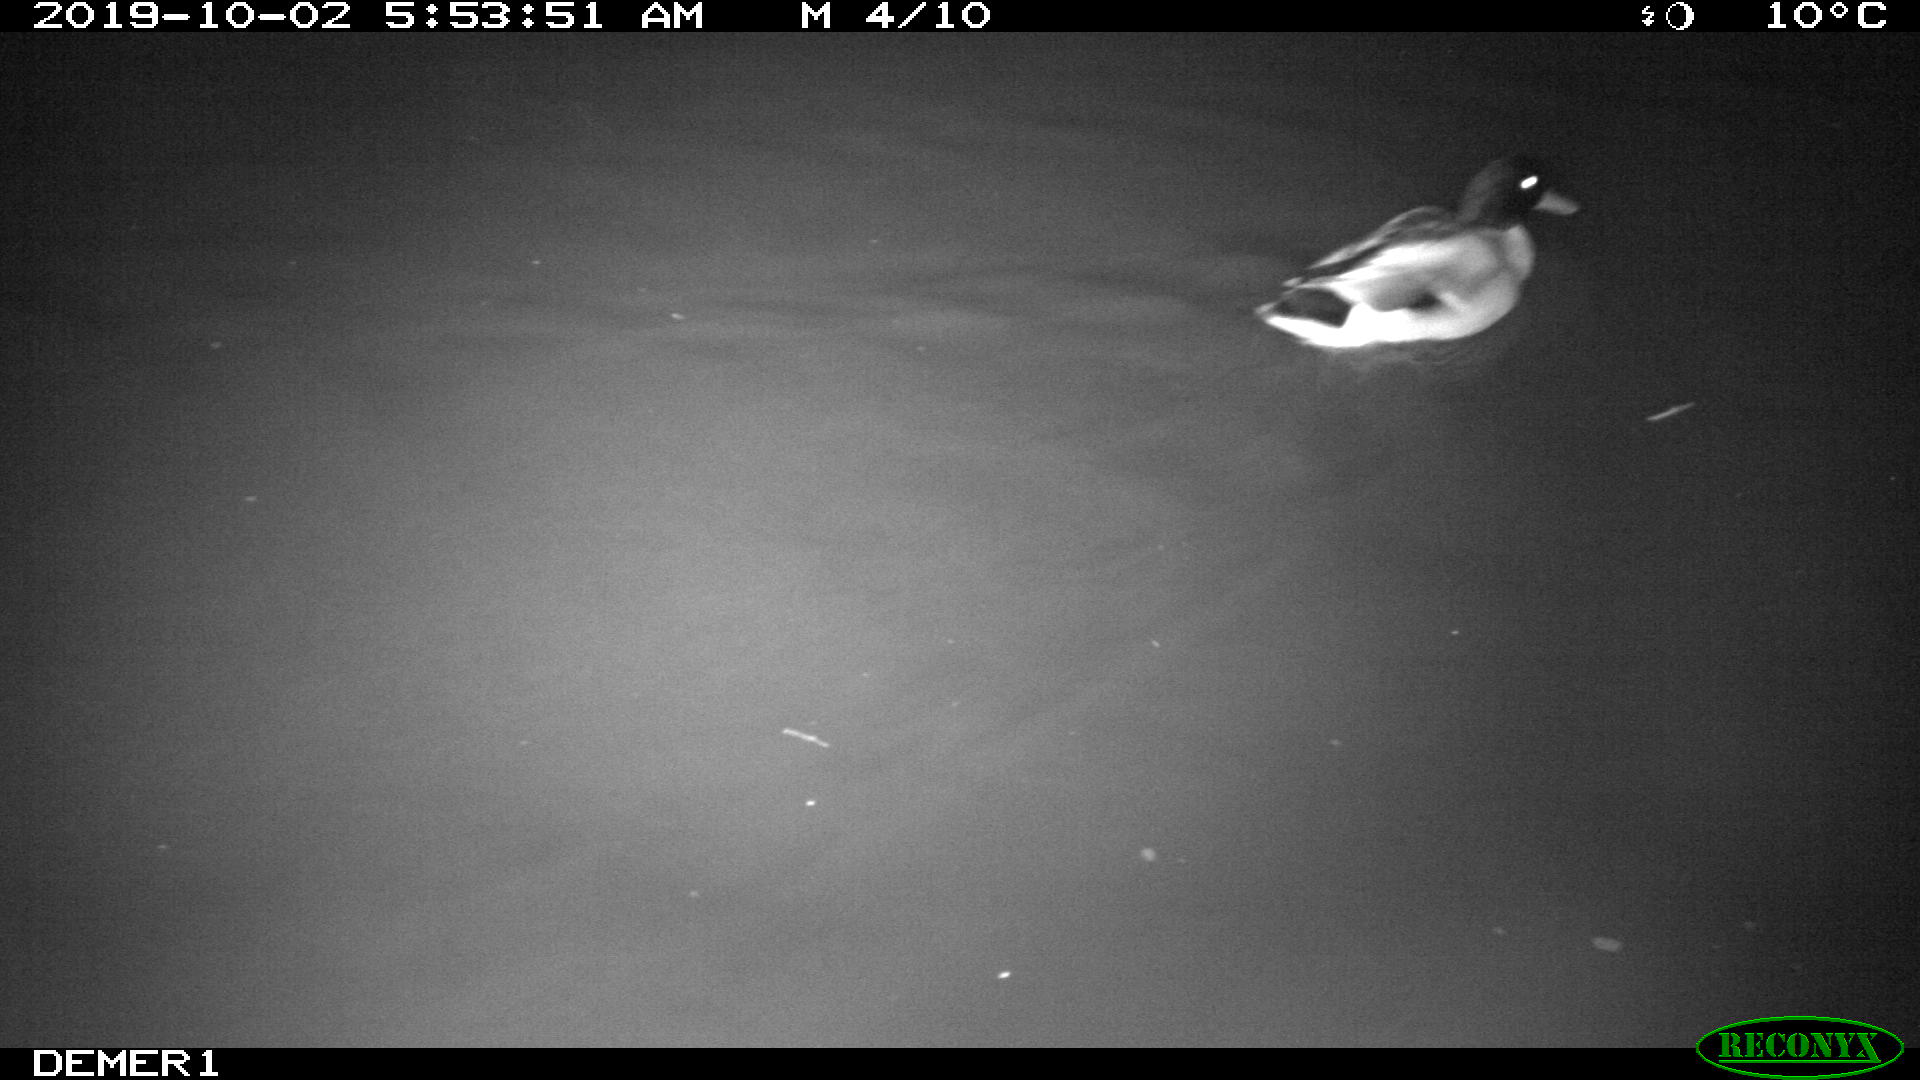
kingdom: Animalia
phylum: Chordata
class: Aves
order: Anseriformes
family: Anatidae
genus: Anas
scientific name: Anas platyrhynchos
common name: Mallard
